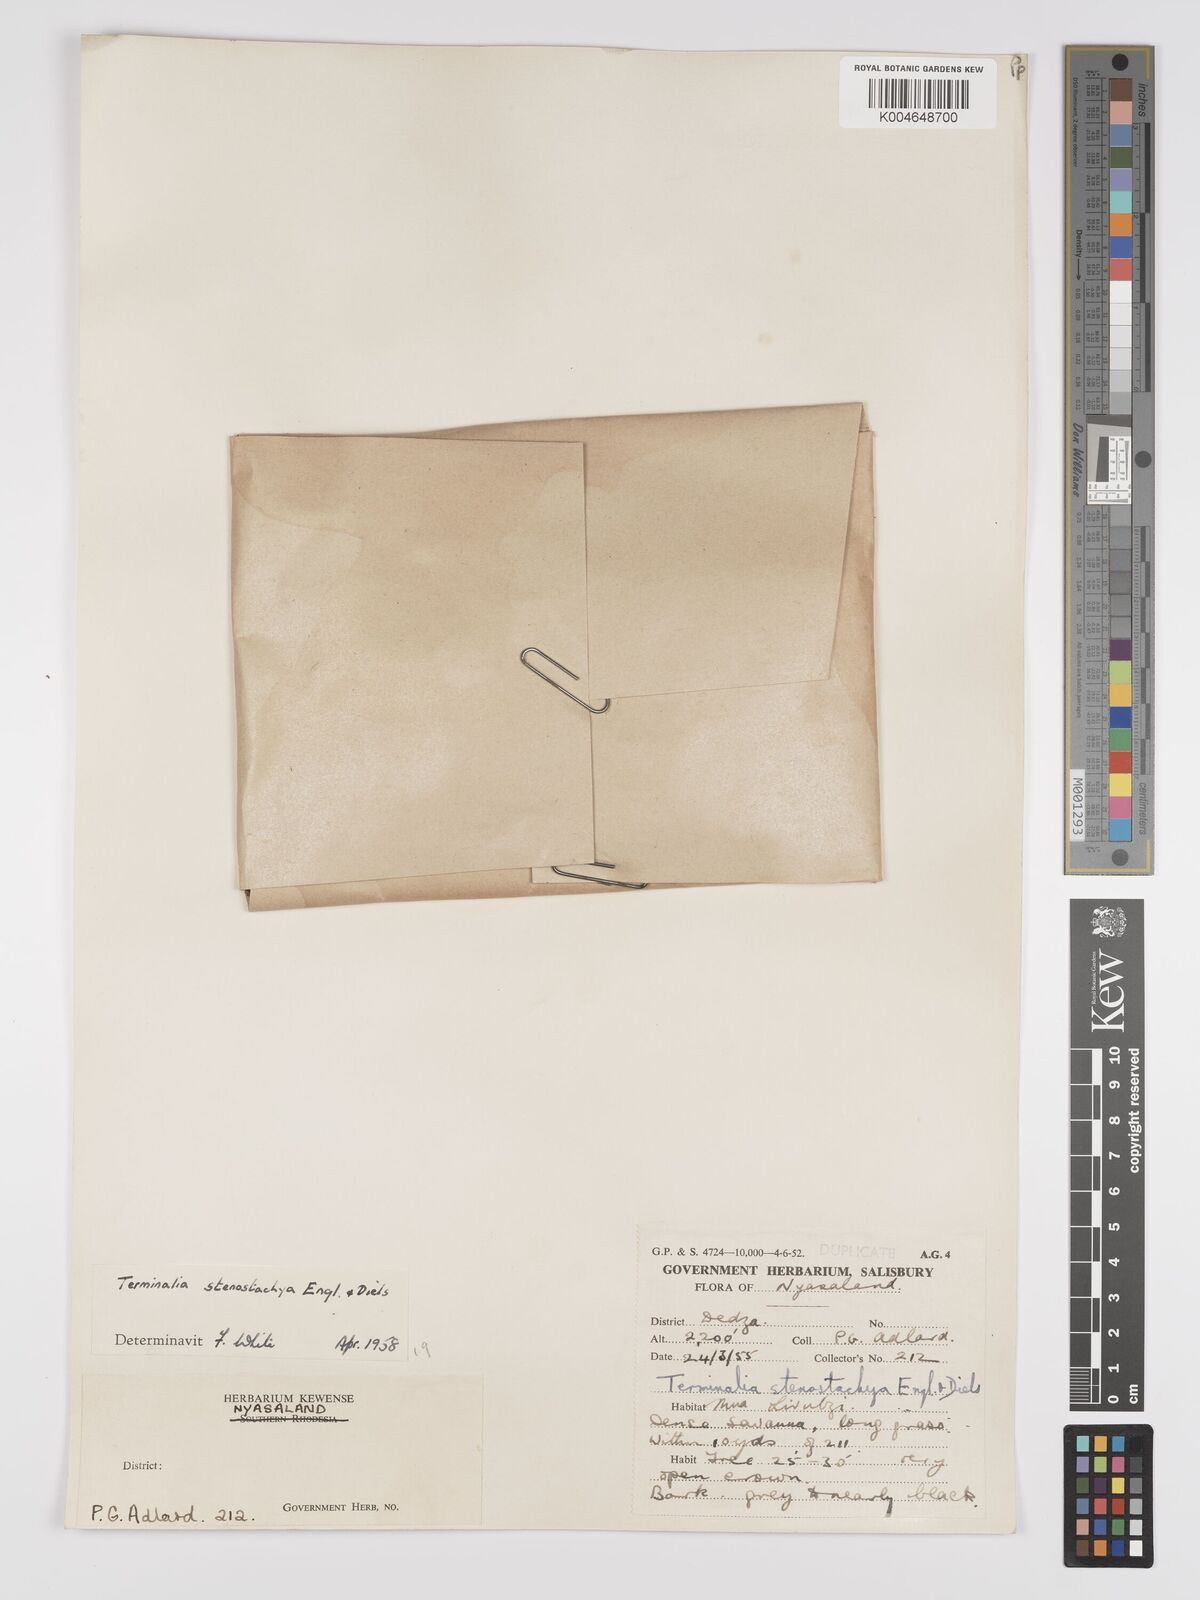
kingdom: Plantae
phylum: Tracheophyta
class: Magnoliopsida
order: Myrtales
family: Combretaceae
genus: Terminalia
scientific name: Terminalia stenostachya
